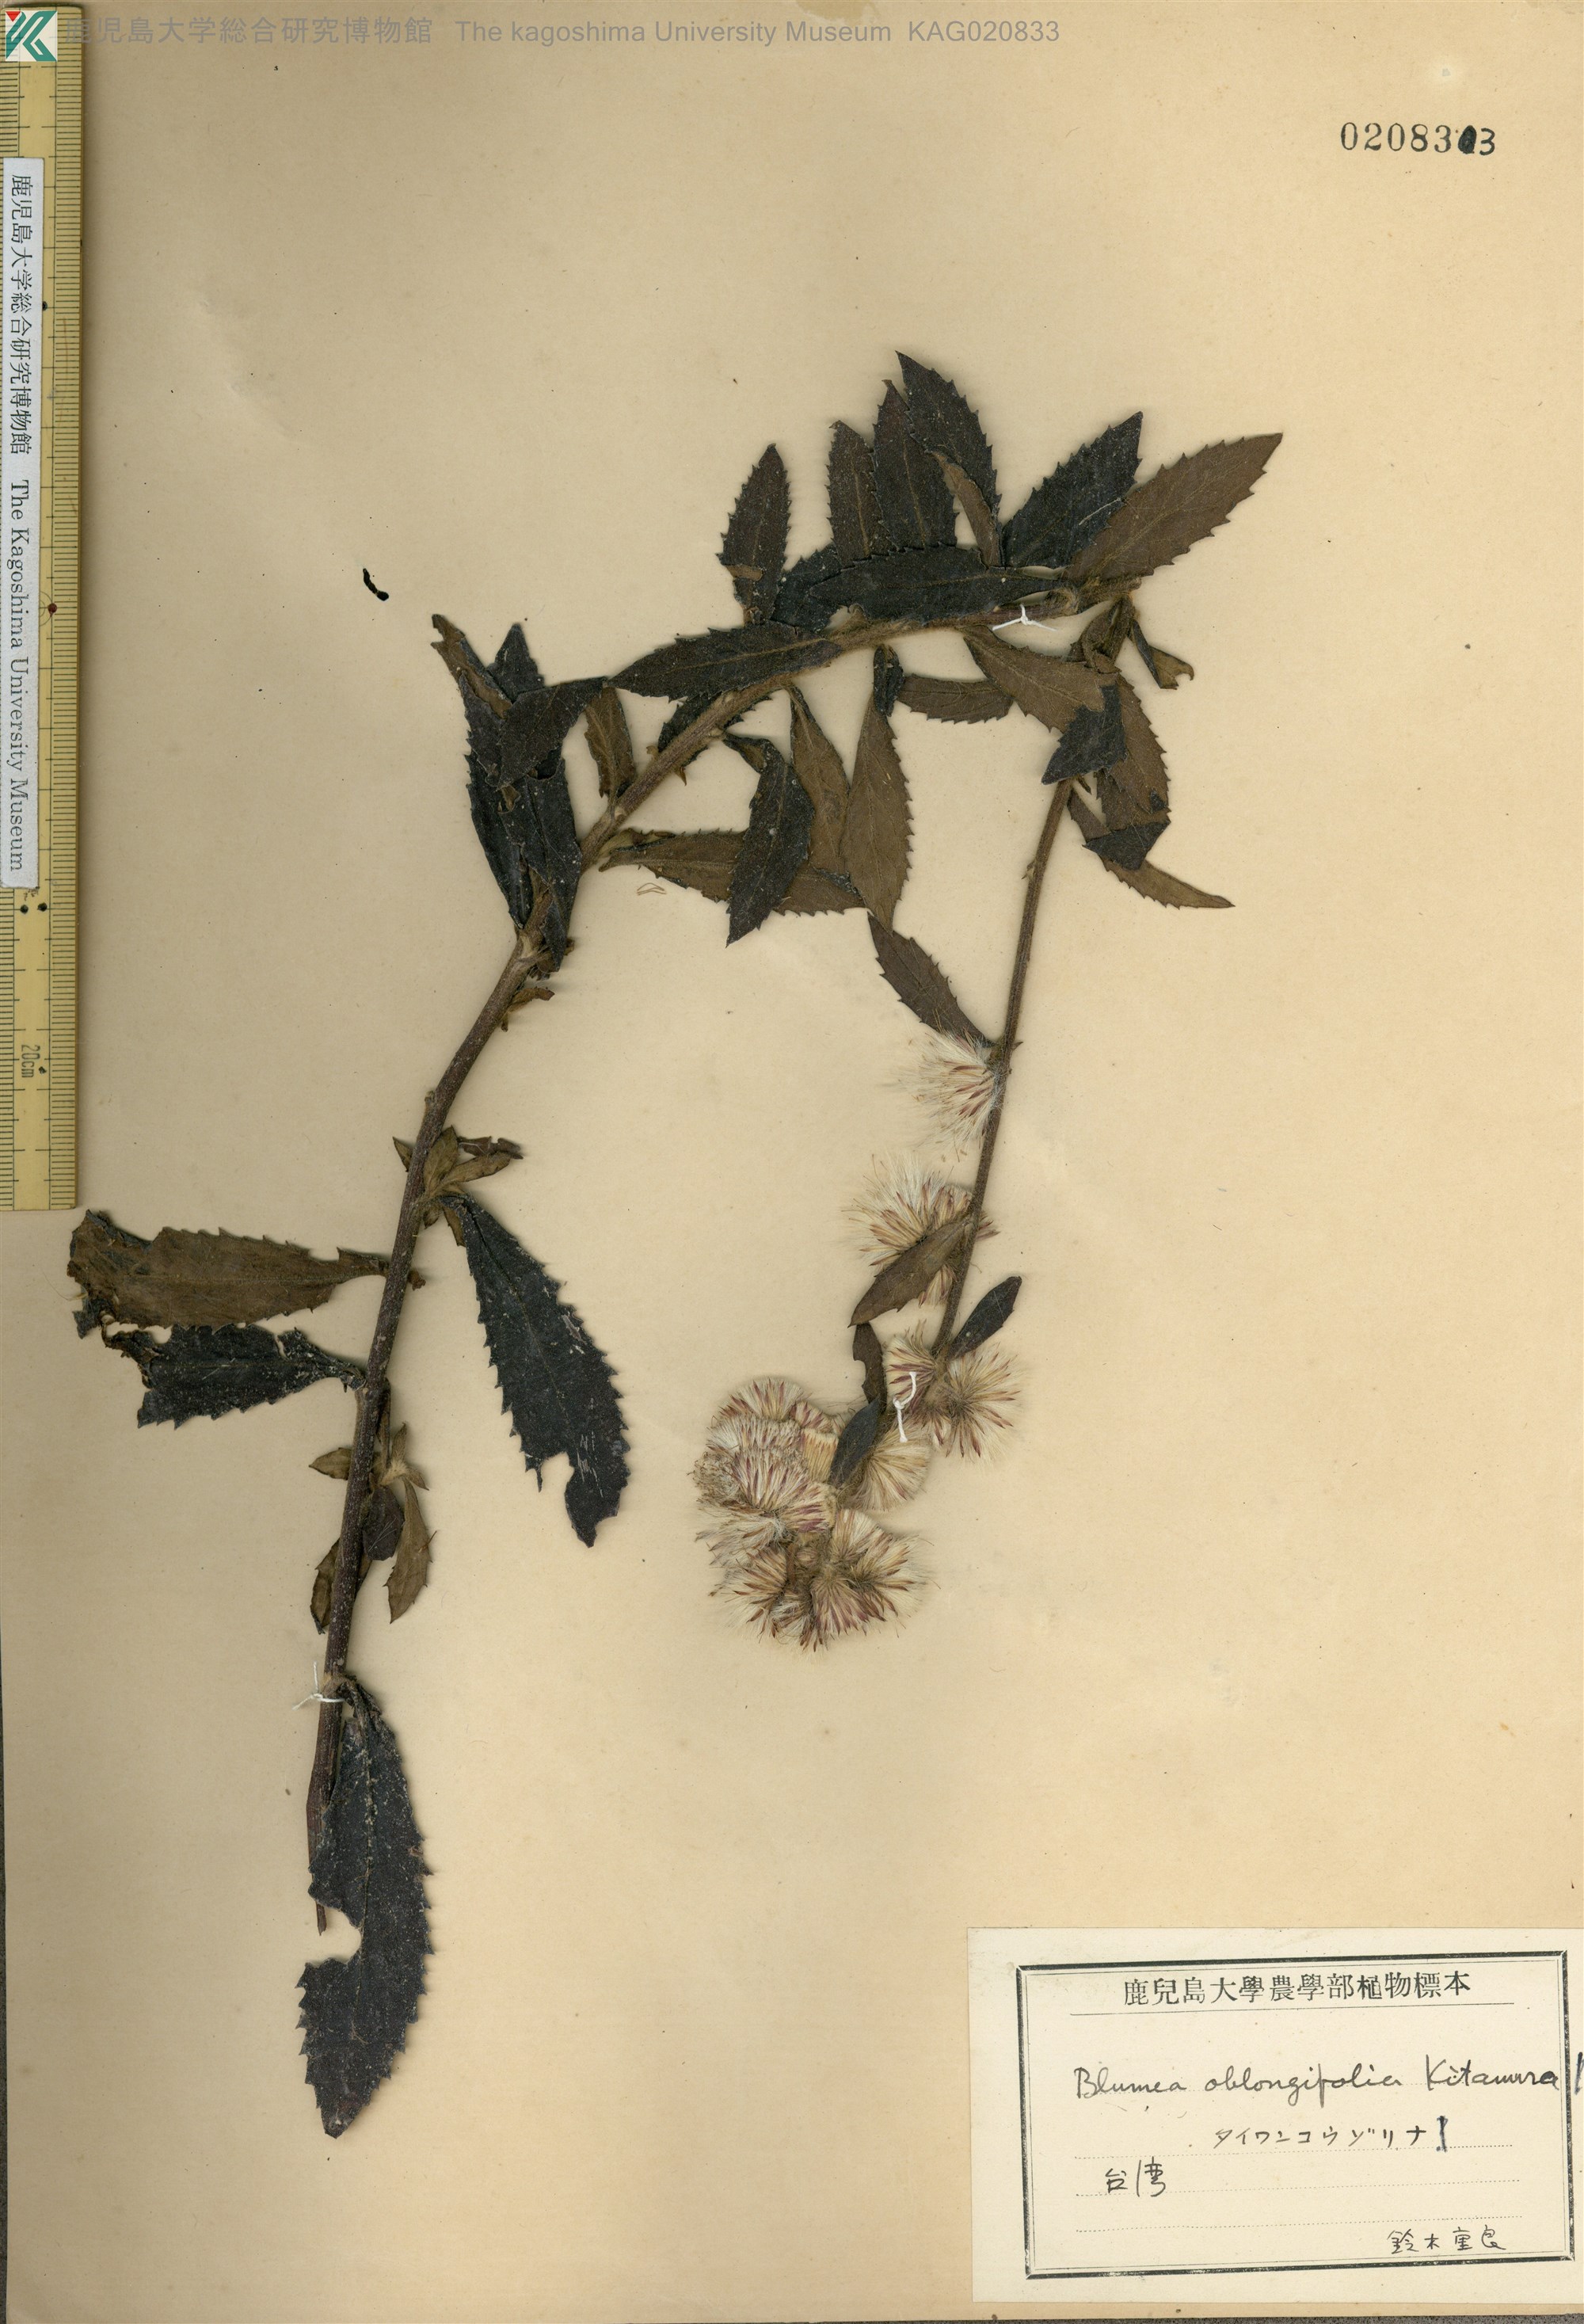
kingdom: Plantae
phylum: Tracheophyta
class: Magnoliopsida
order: Asterales
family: Asteraceae
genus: Blumea
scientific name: Blumea oblongifolia
